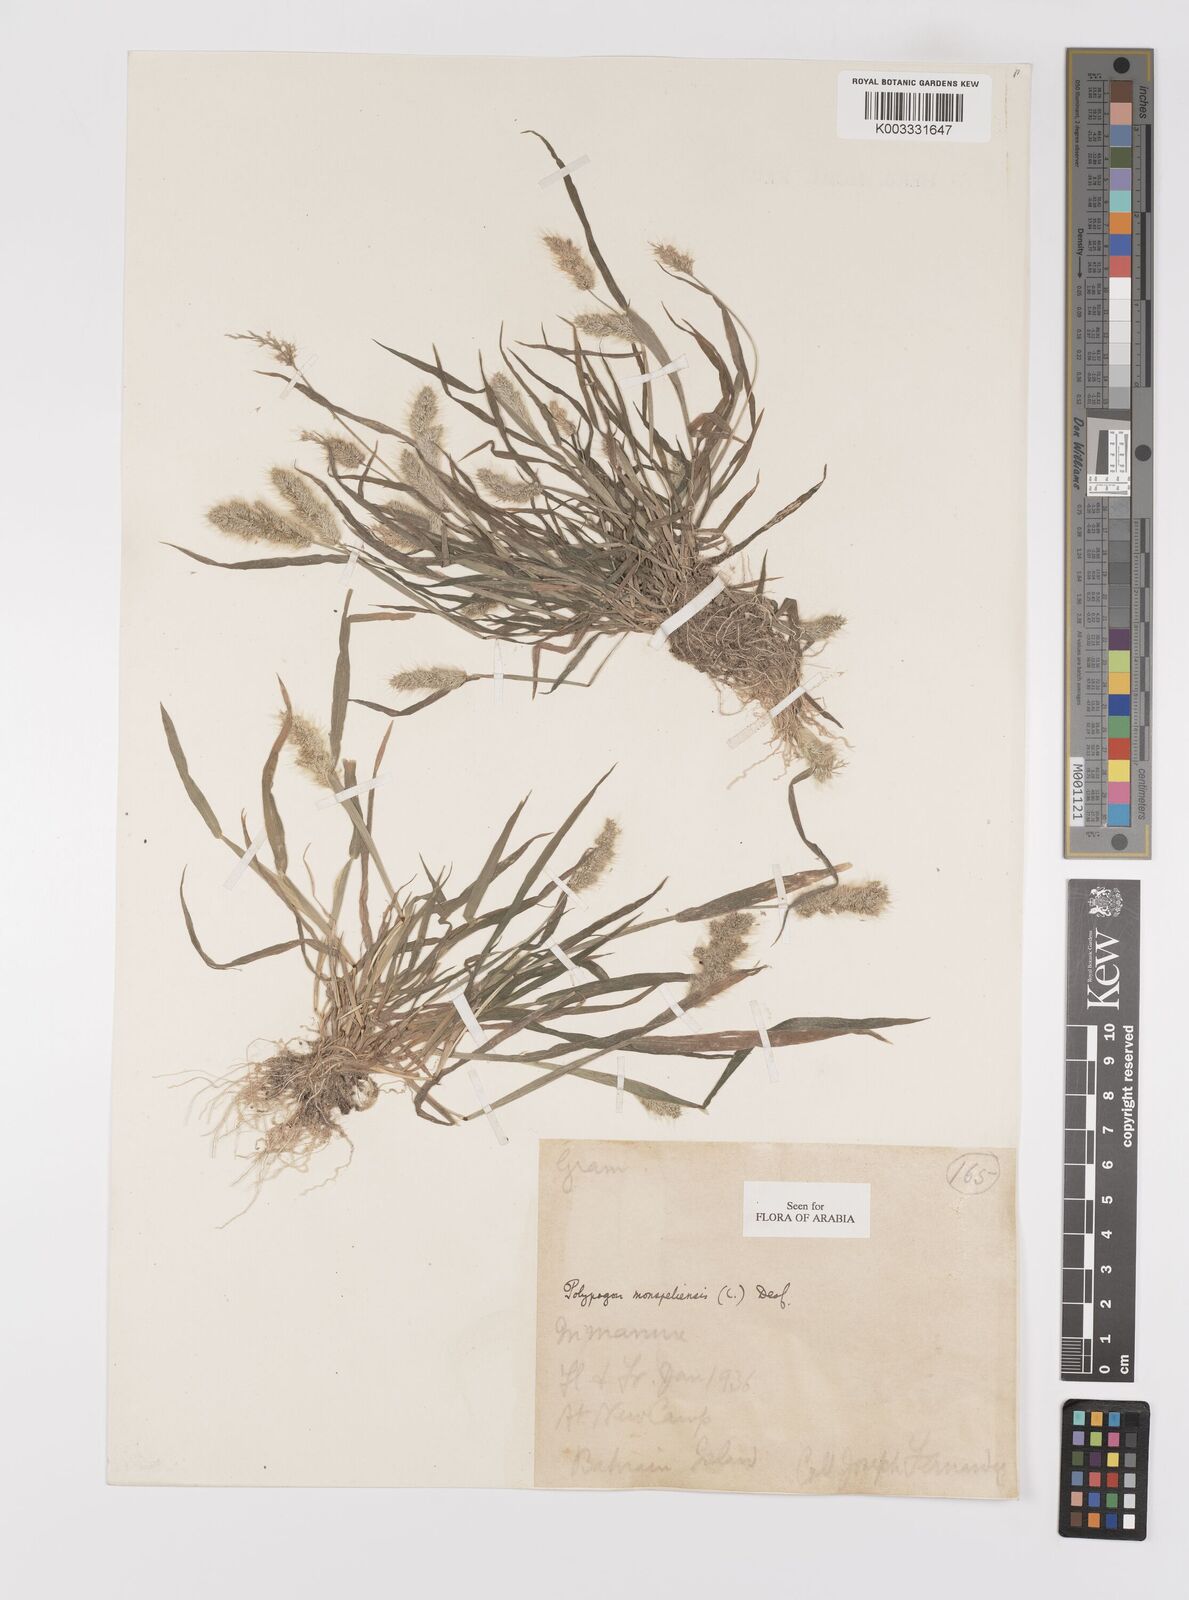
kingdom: Plantae
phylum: Tracheophyta
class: Liliopsida
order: Poales
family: Poaceae
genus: Polypogon
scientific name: Polypogon monspeliensis
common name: Annual rabbitsfoot grass
